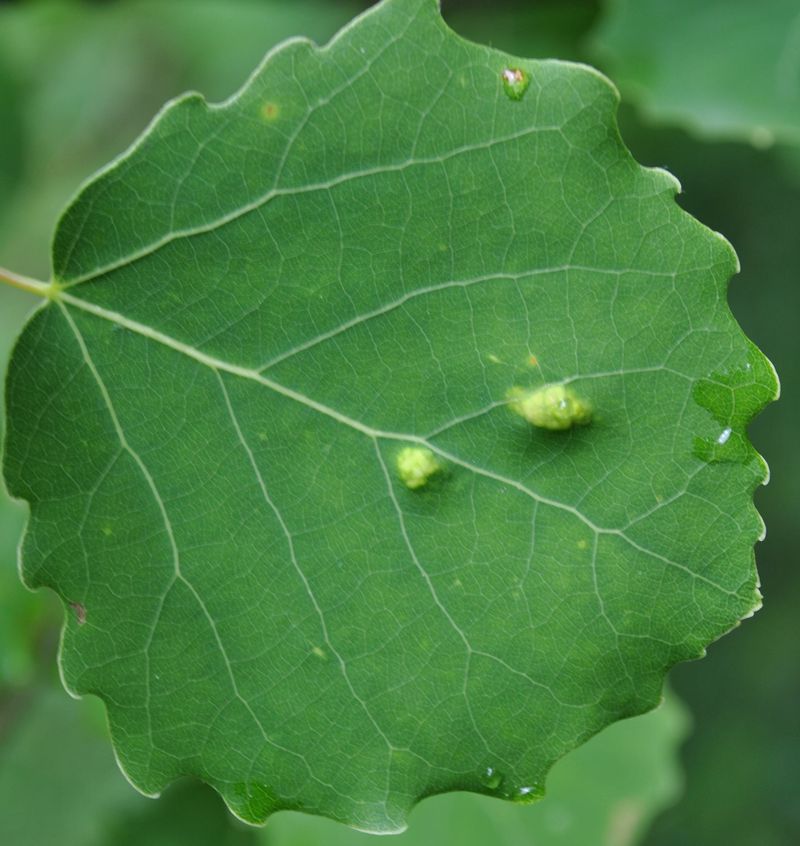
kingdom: Animalia
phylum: Arthropoda
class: Arachnida
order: Trombidiformes
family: Eriophyidae
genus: Phyllocoptes
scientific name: Phyllocoptes populi
